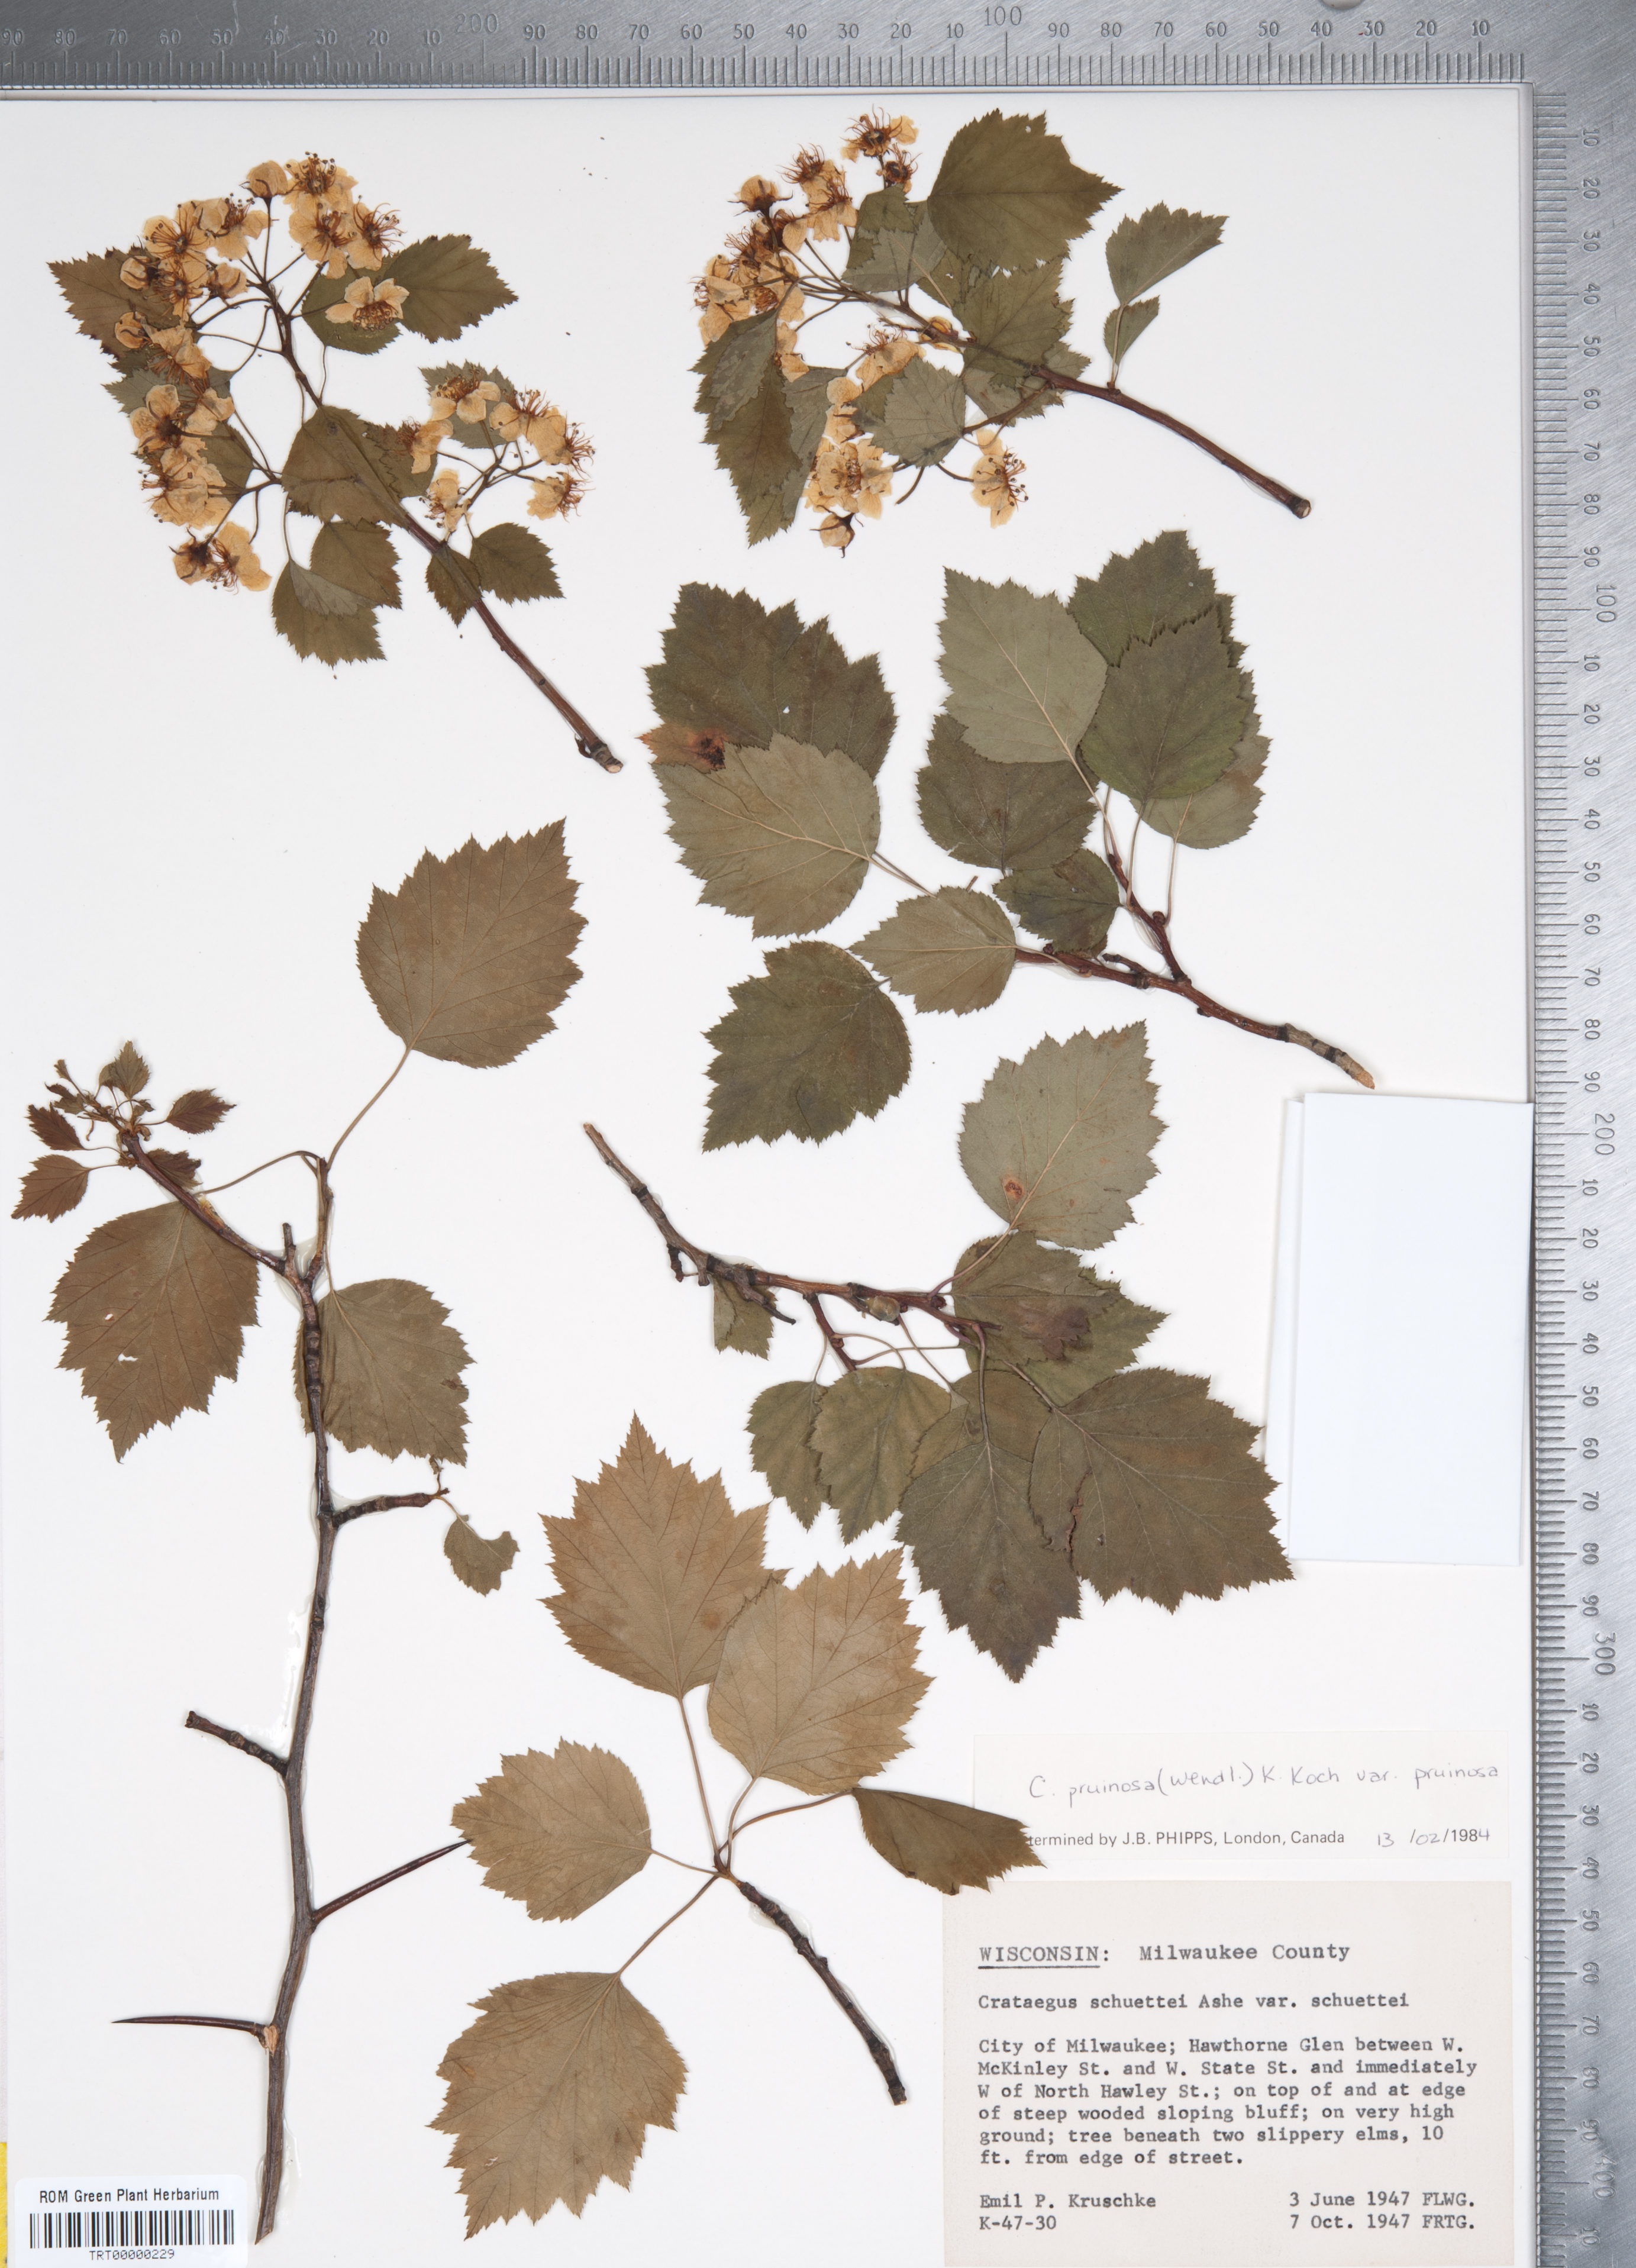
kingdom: Plantae
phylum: Tracheophyta
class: Magnoliopsida
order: Rosales
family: Rosaceae
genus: Crataegus
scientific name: Crataegus pruinosa
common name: Waxy-fruit hawthorn
